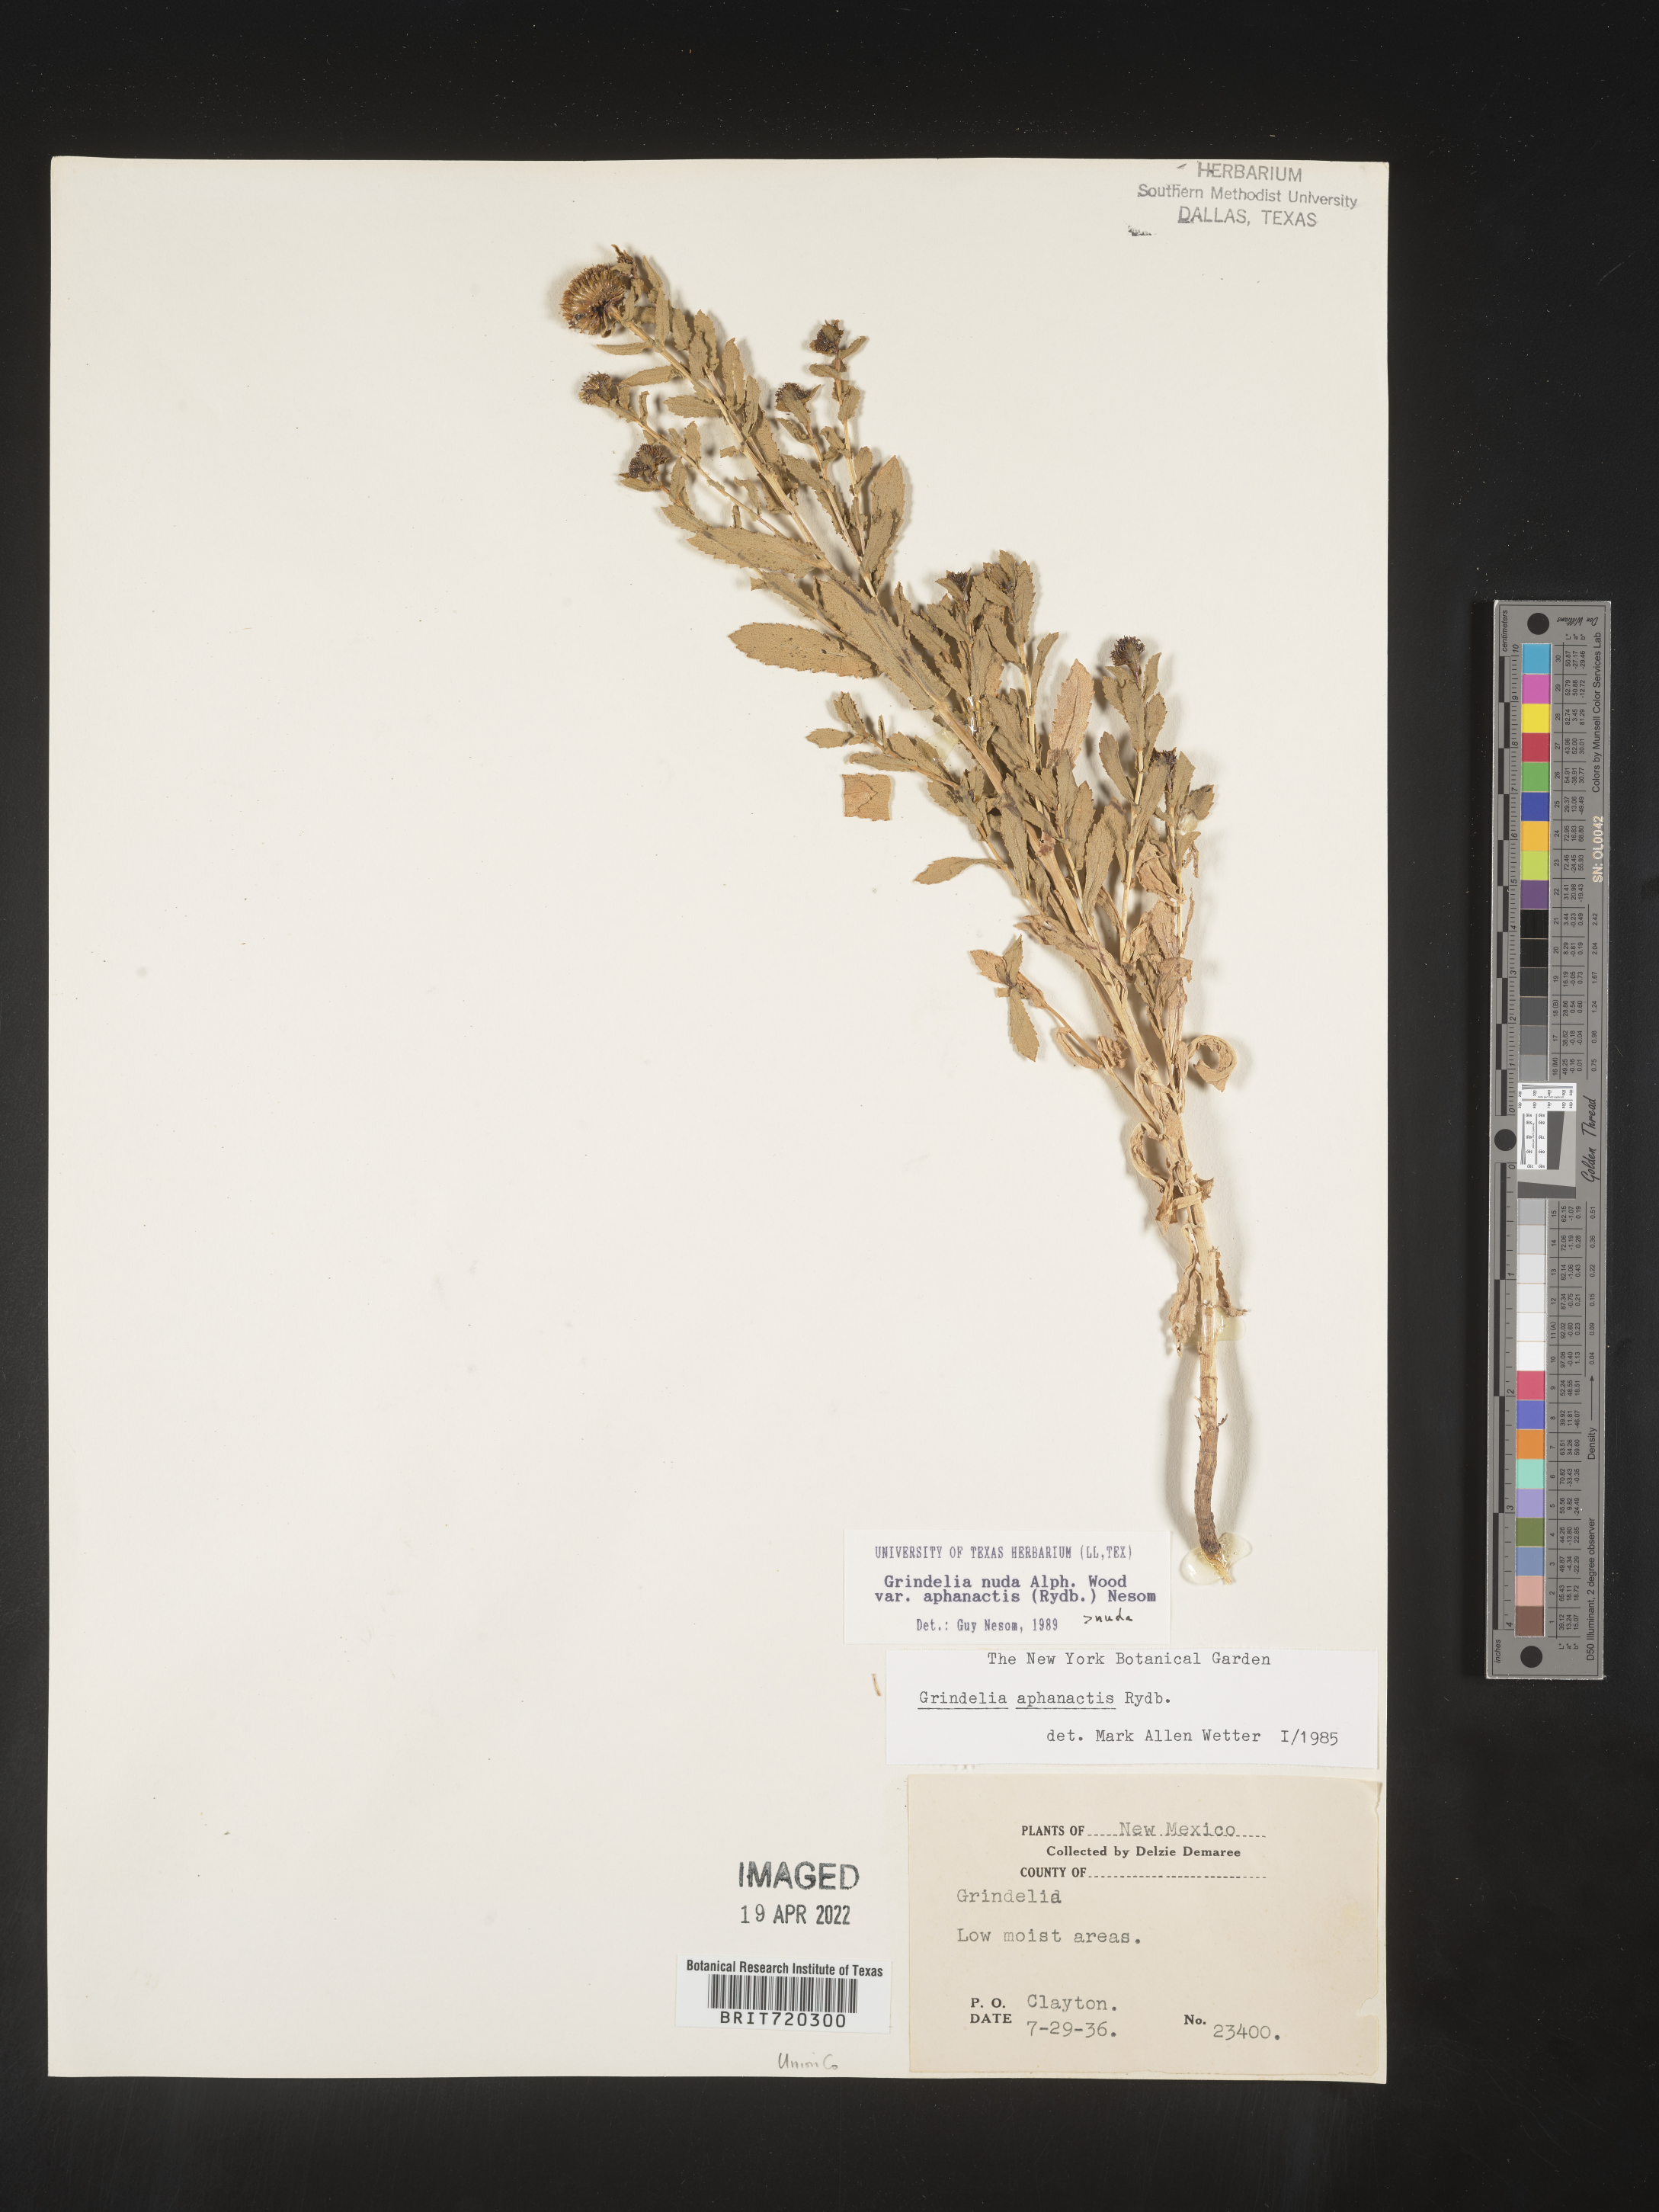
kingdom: Plantae
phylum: Tracheophyta
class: Magnoliopsida
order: Asterales
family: Asteraceae
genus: Grindelia
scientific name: Grindelia nuda
